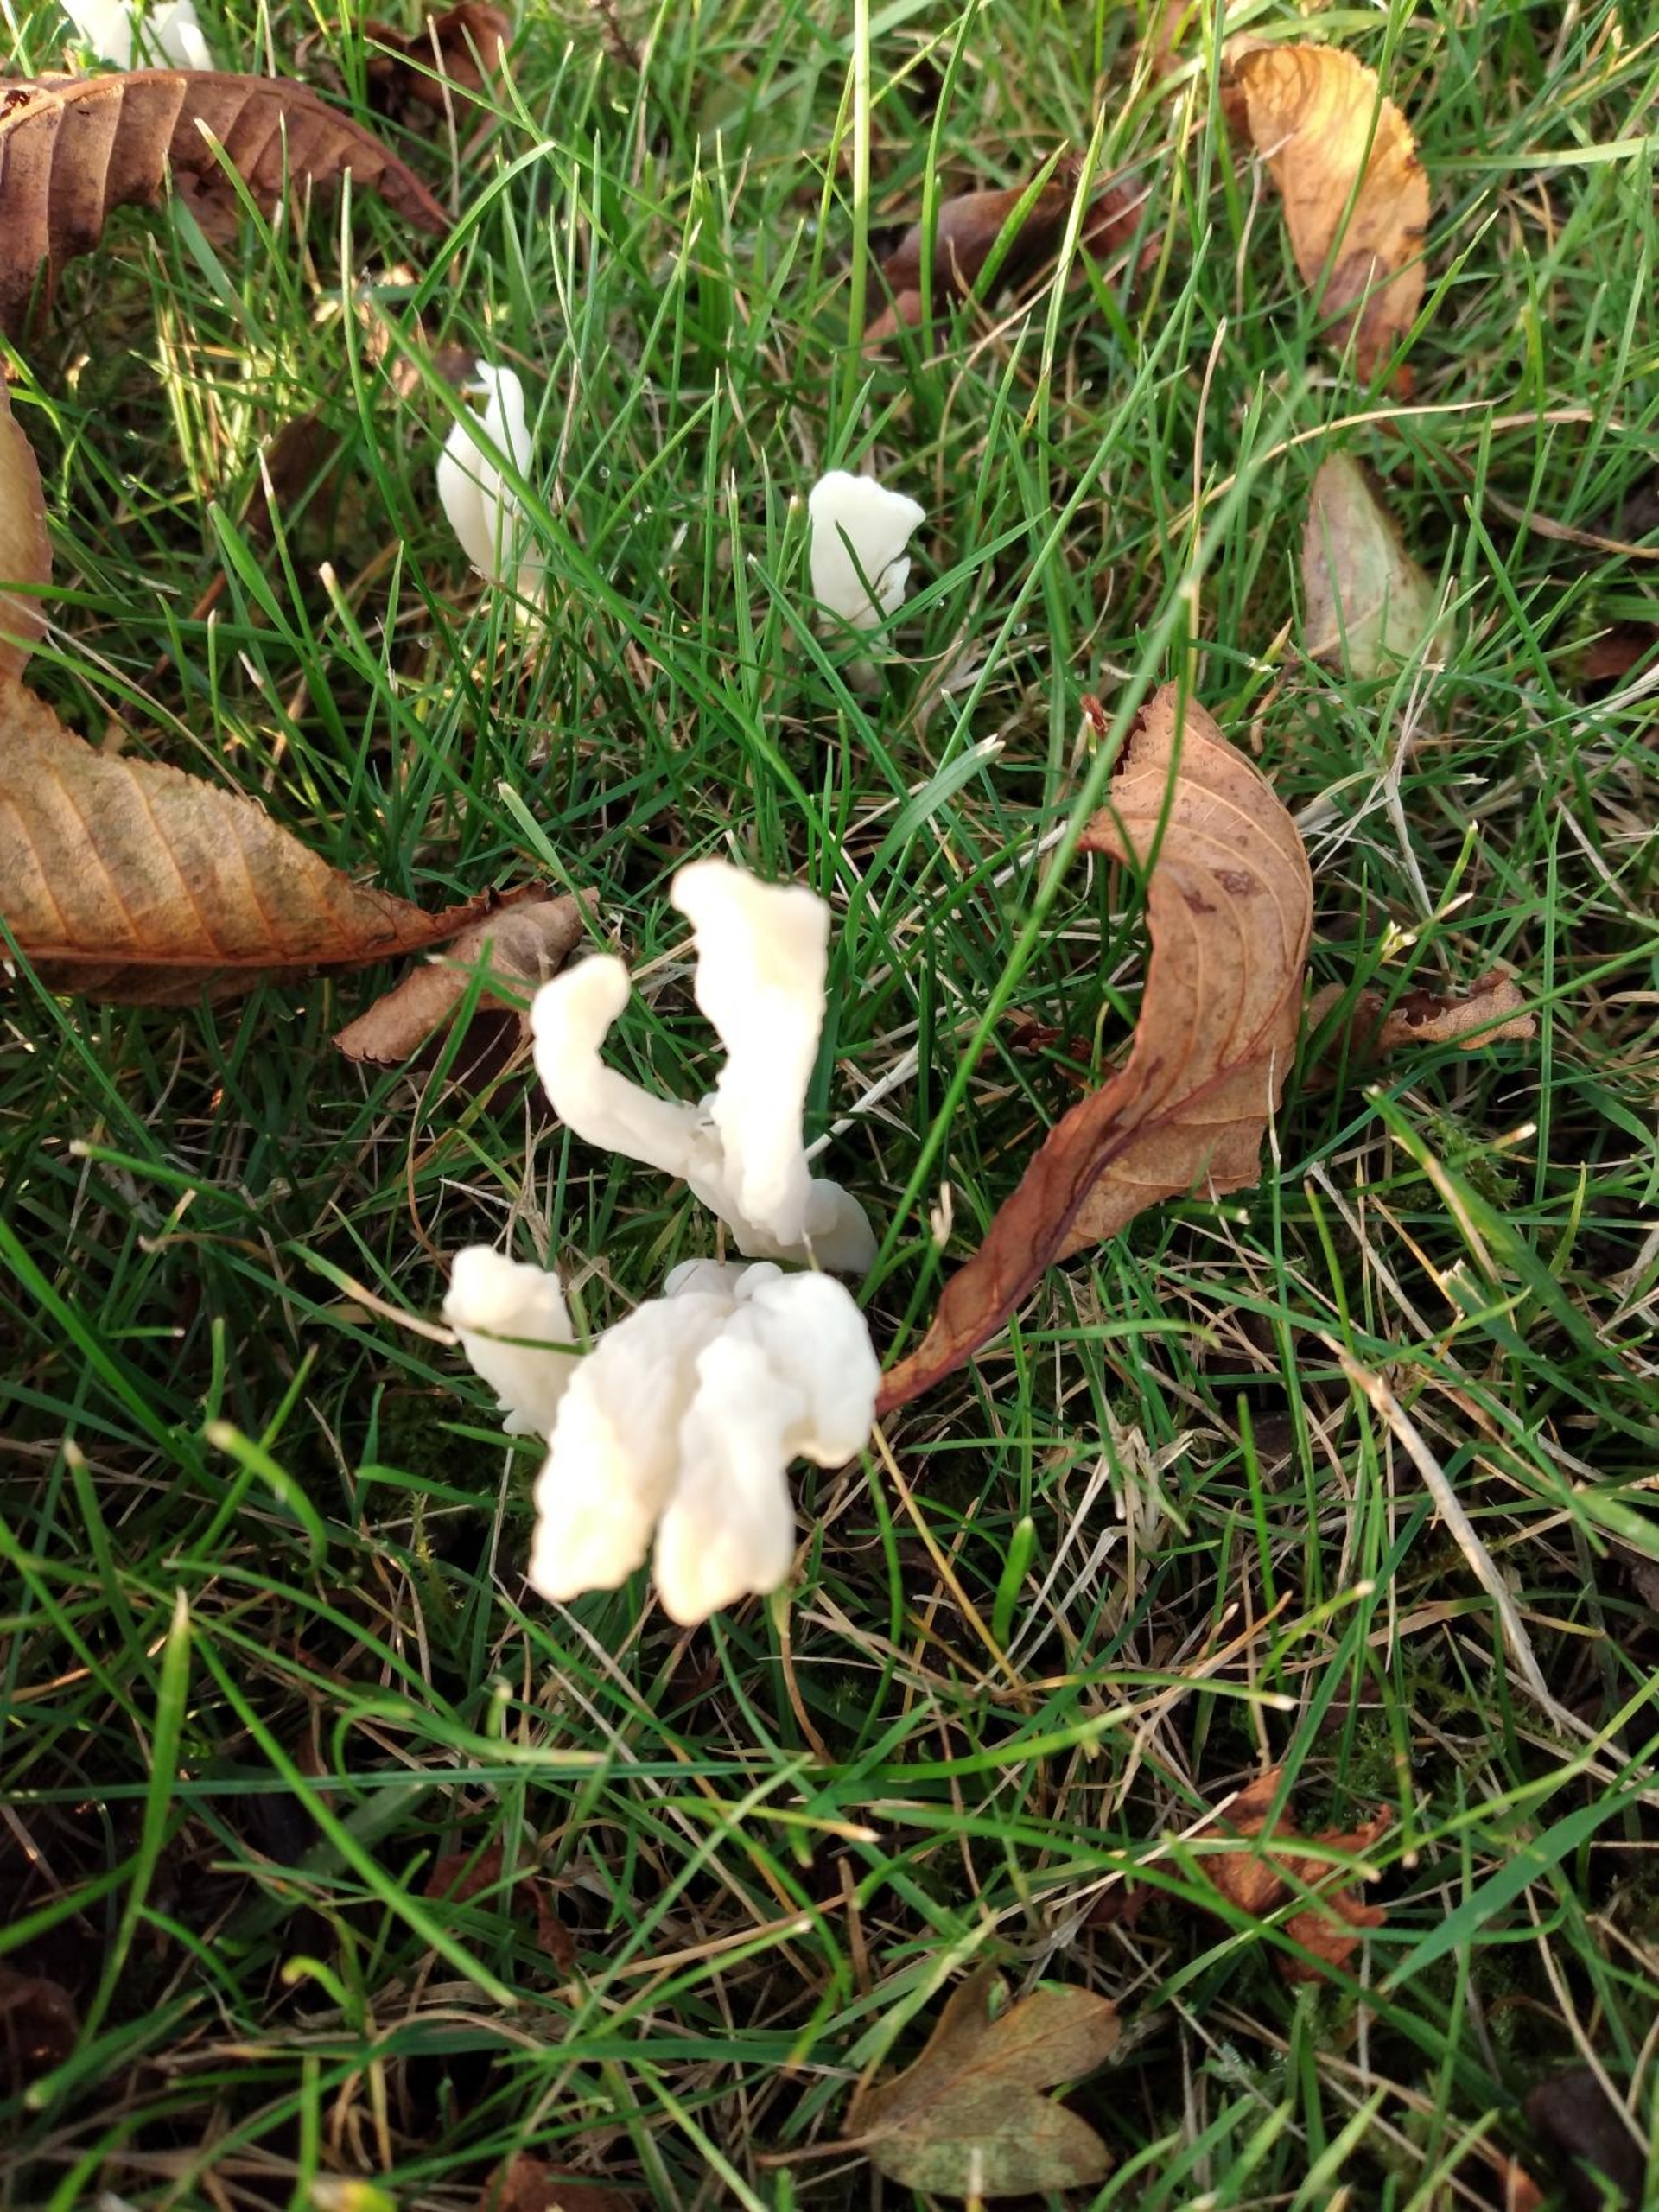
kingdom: Fungi
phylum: Basidiomycota
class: Agaricomycetes
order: Cantharellales
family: Hydnaceae
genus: Clavulina
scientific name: Clavulina rugosa
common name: Rynket troldkølle
